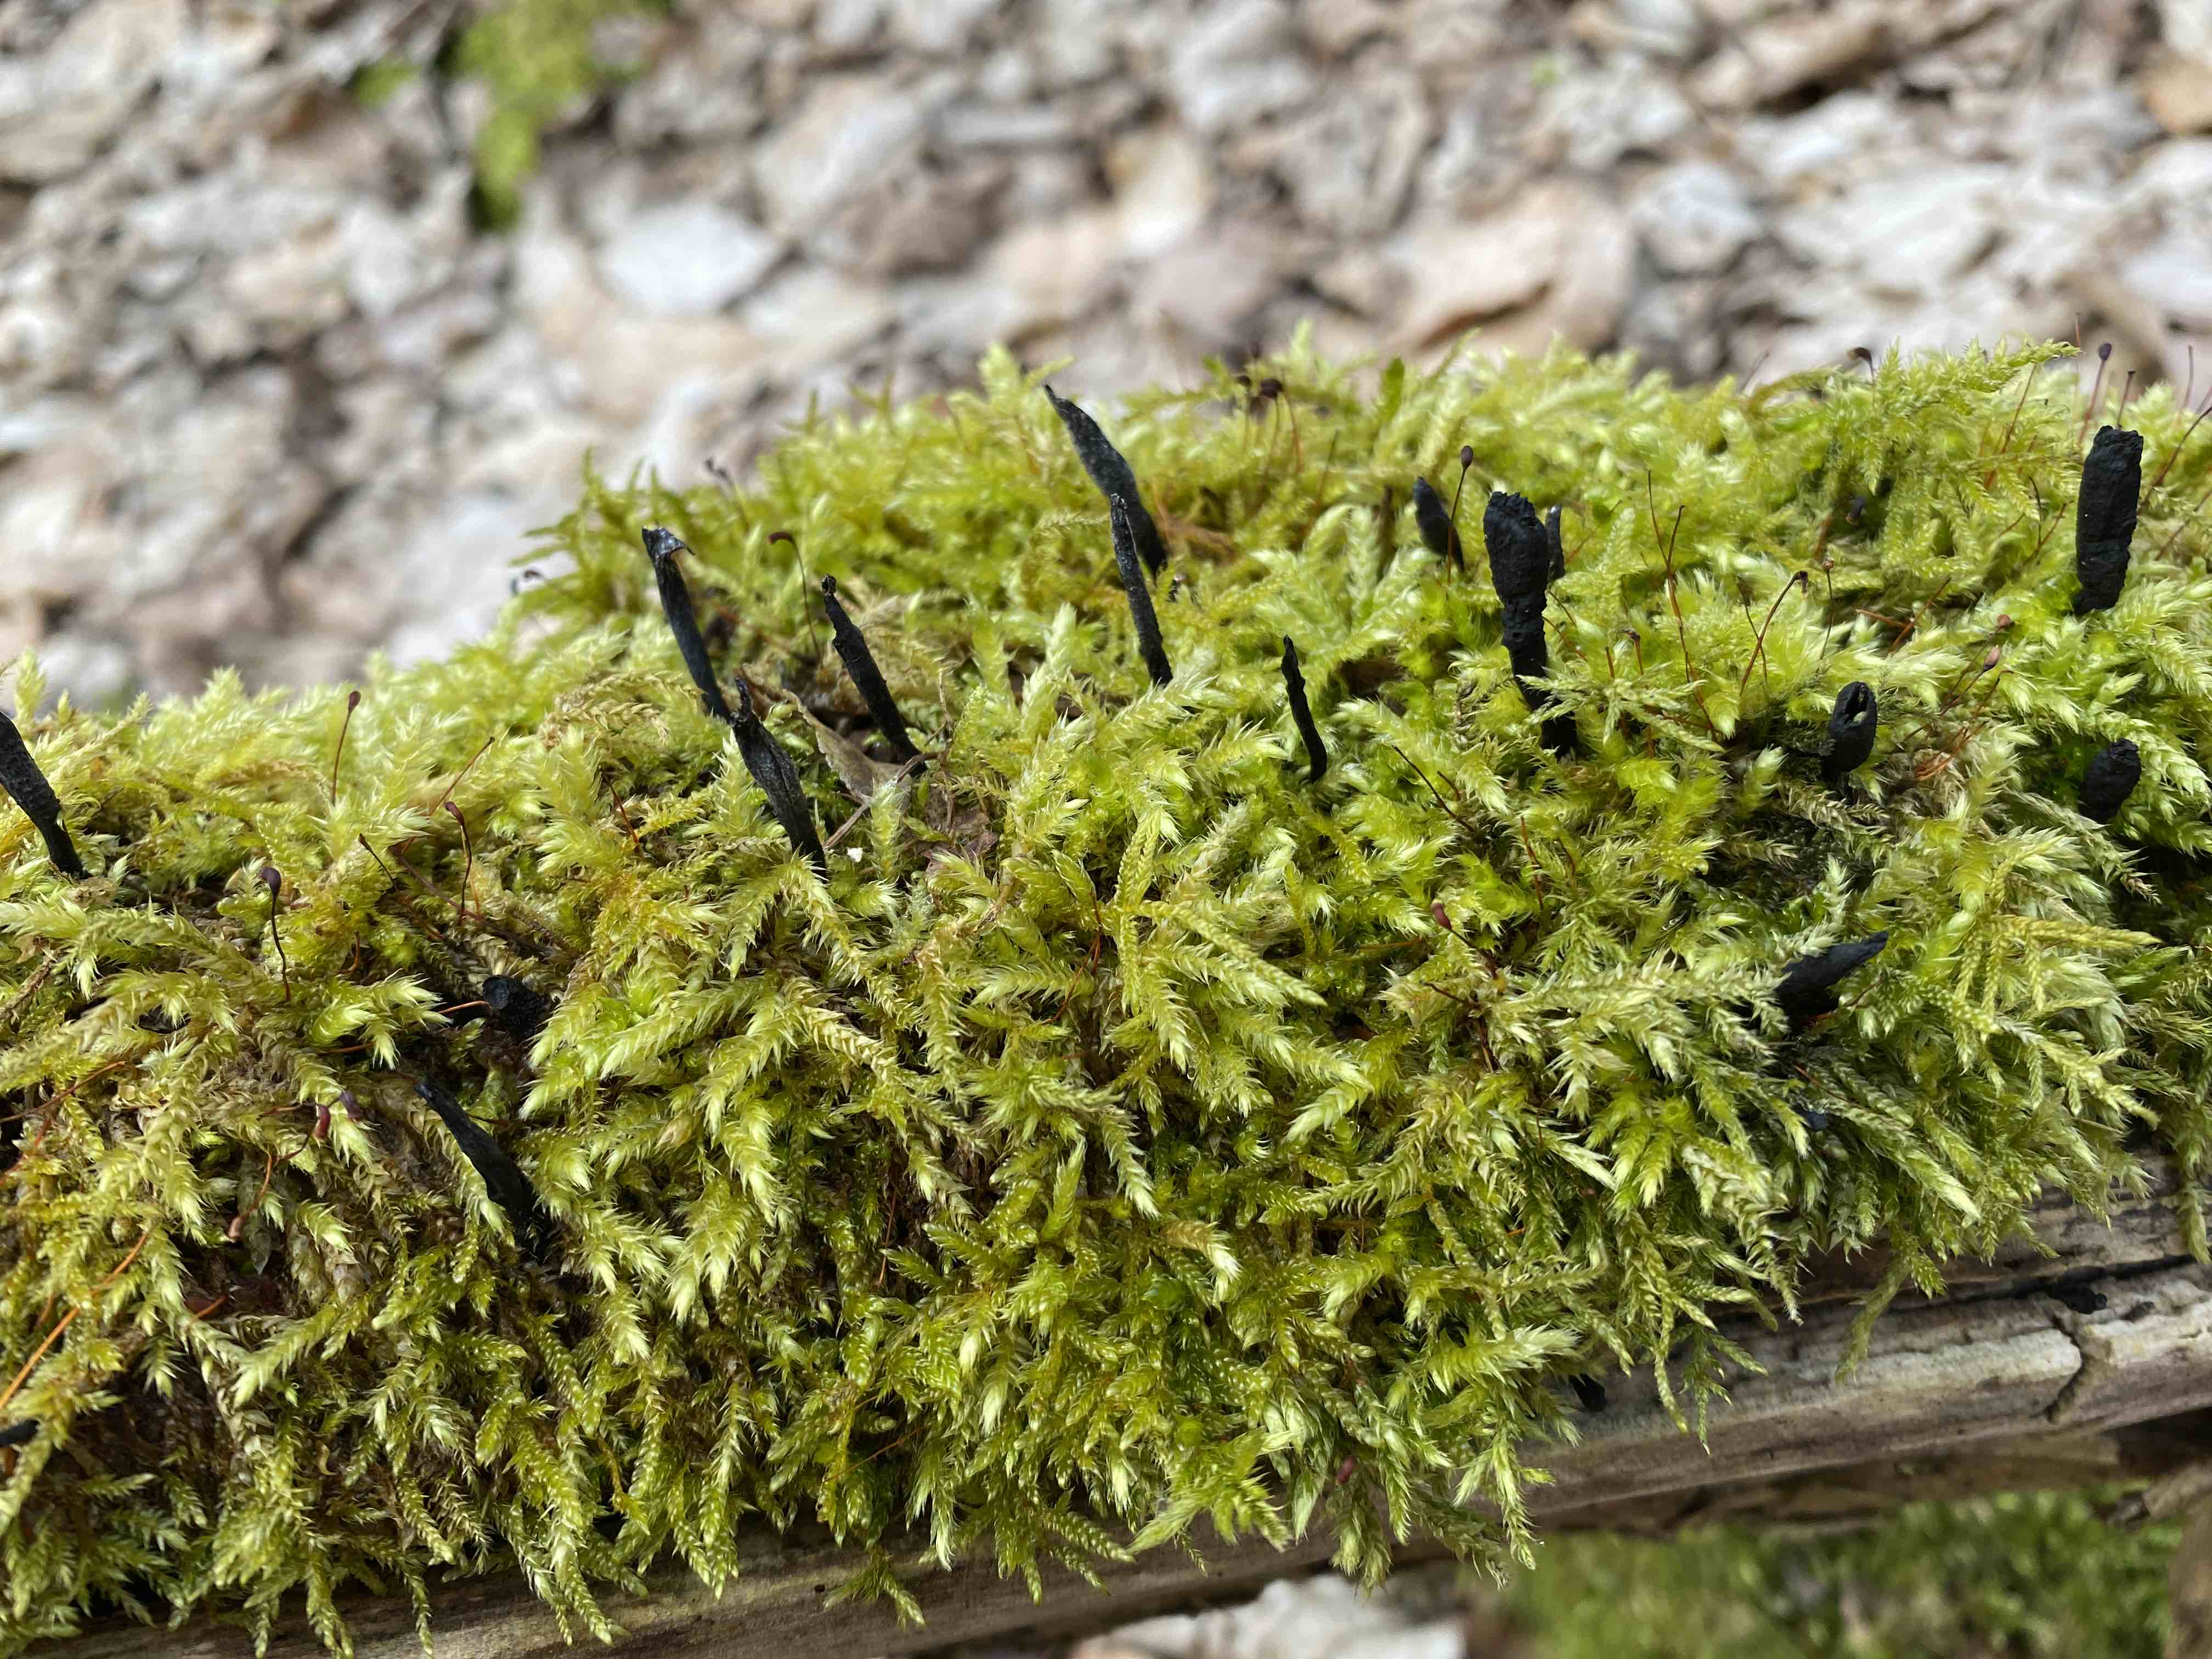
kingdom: Fungi
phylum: Ascomycota
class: Sordariomycetes
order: Xylariales
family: Xylariaceae
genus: Xylaria
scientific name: Xylaria hypoxylon
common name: grenet stødsvamp
